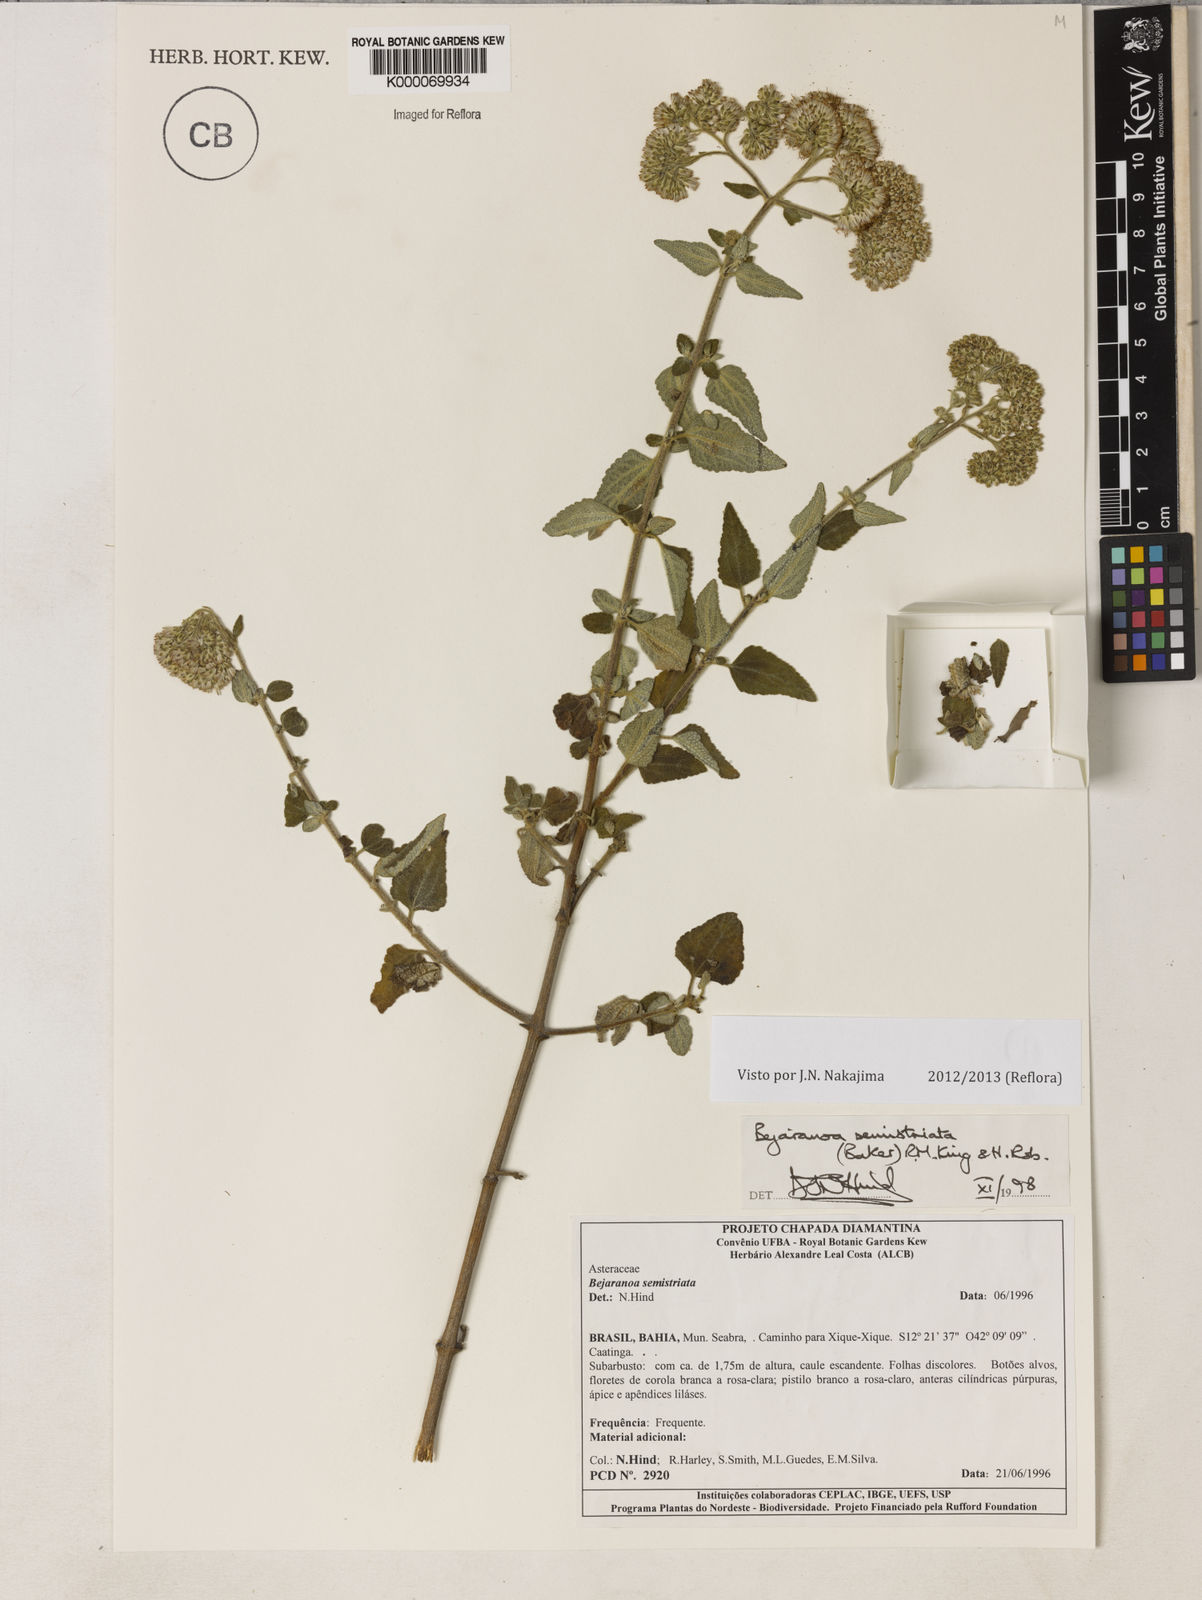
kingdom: Plantae
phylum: Tracheophyta
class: Magnoliopsida
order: Asterales
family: Asteraceae
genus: Bejaranoa
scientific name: Bejaranoa semistriata
